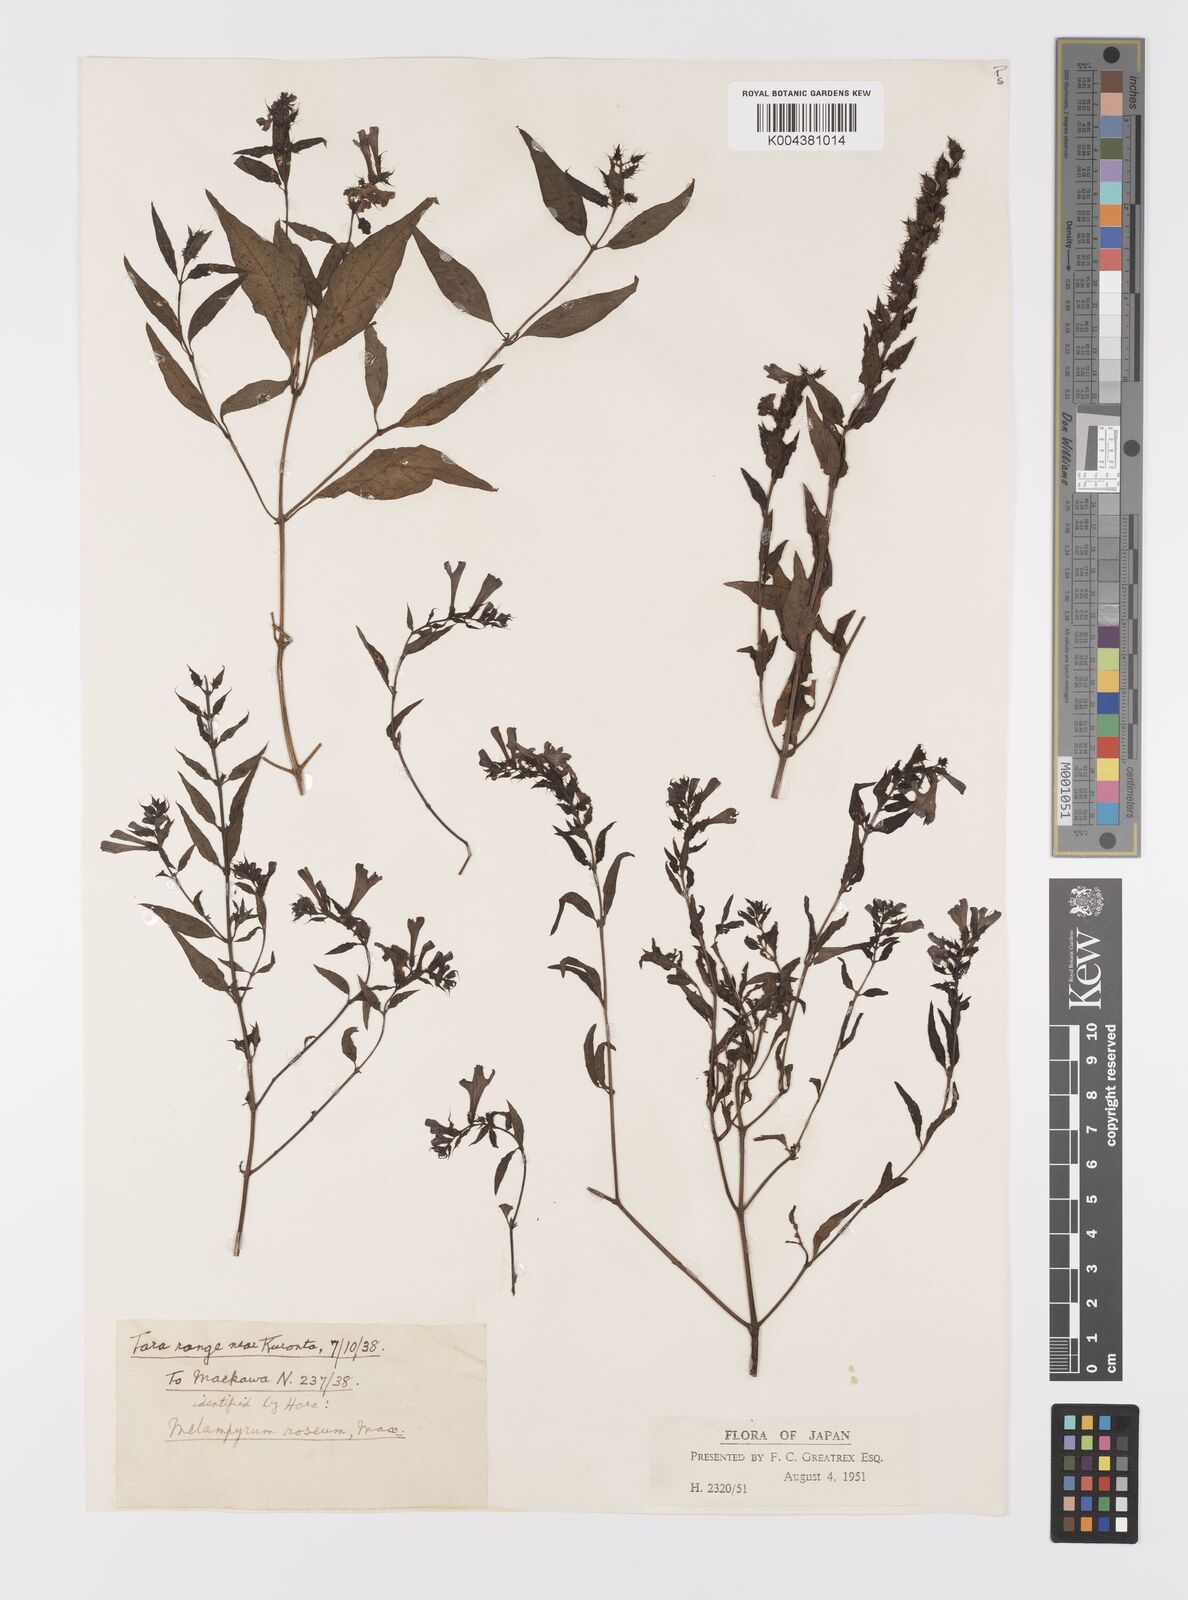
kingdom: Plantae
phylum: Tracheophyta
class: Magnoliopsida
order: Lamiales
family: Orobanchaceae
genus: Melampyrum
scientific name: Melampyrum roseum
